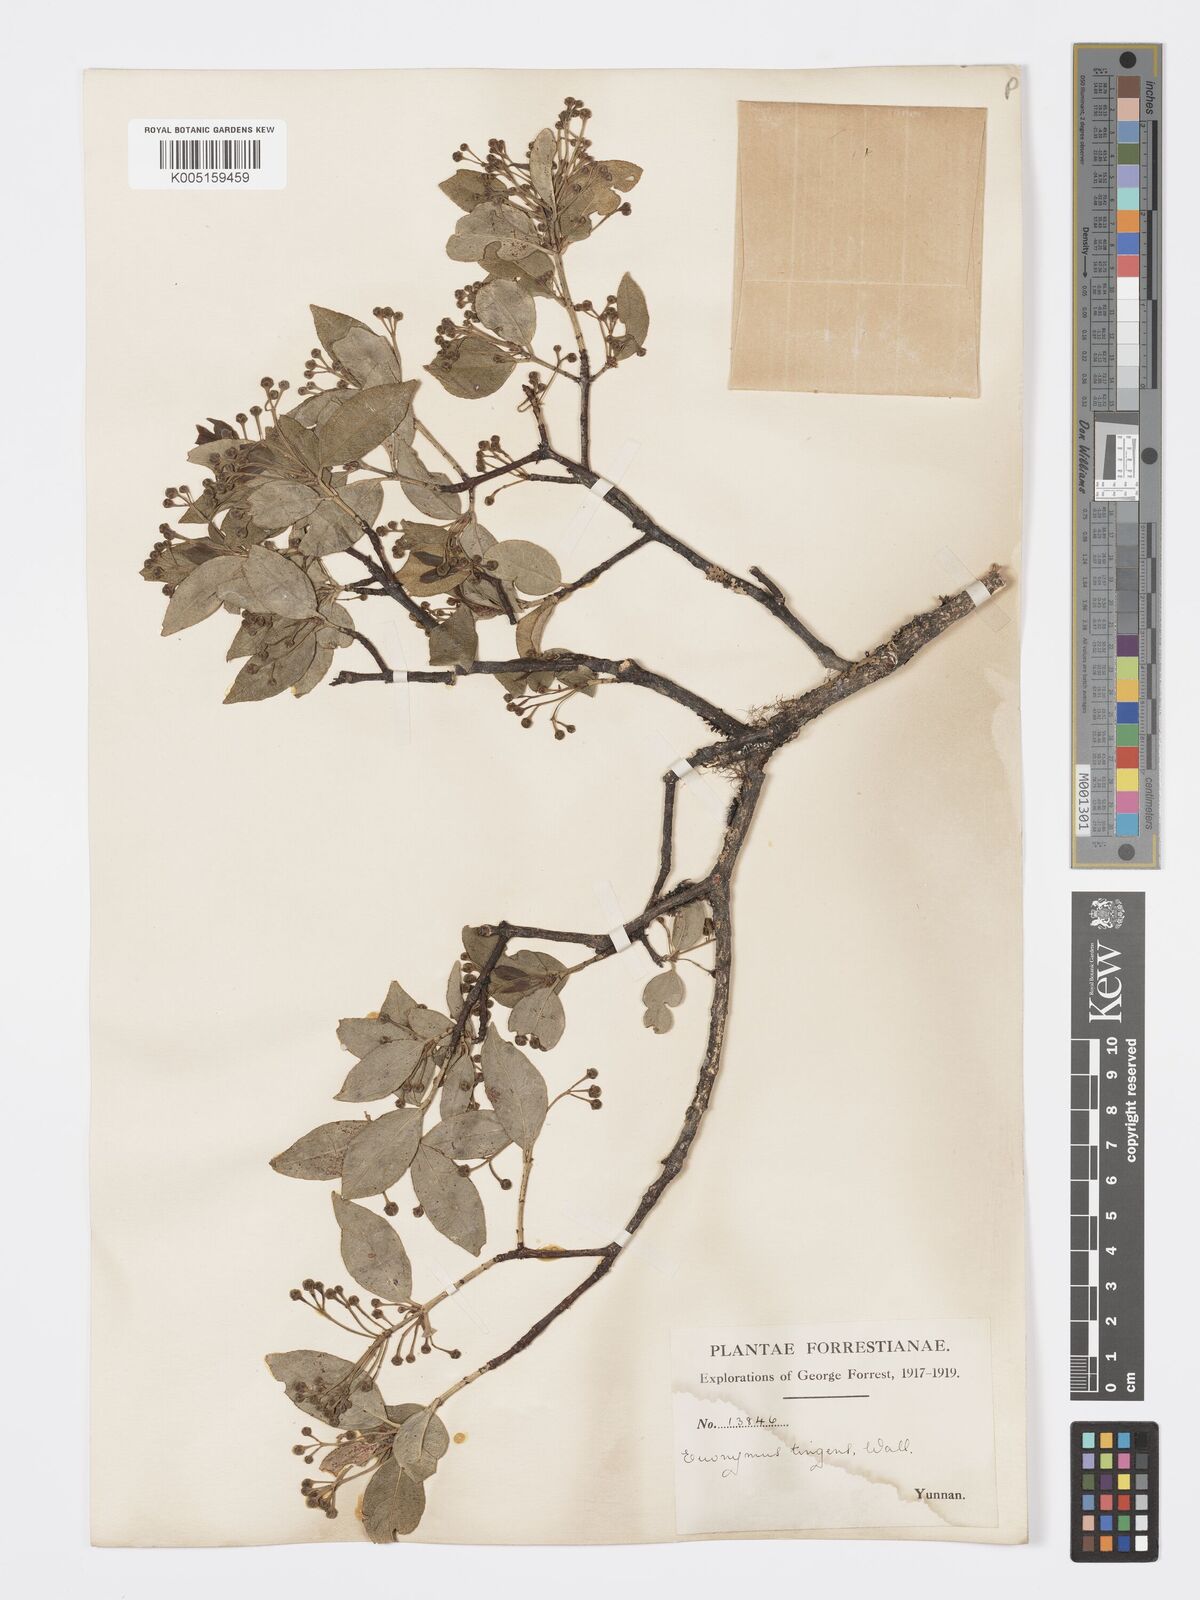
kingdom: Plantae
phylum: Tracheophyta
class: Magnoliopsida
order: Celastrales
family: Celastraceae
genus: Euonymus
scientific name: Euonymus tingens
